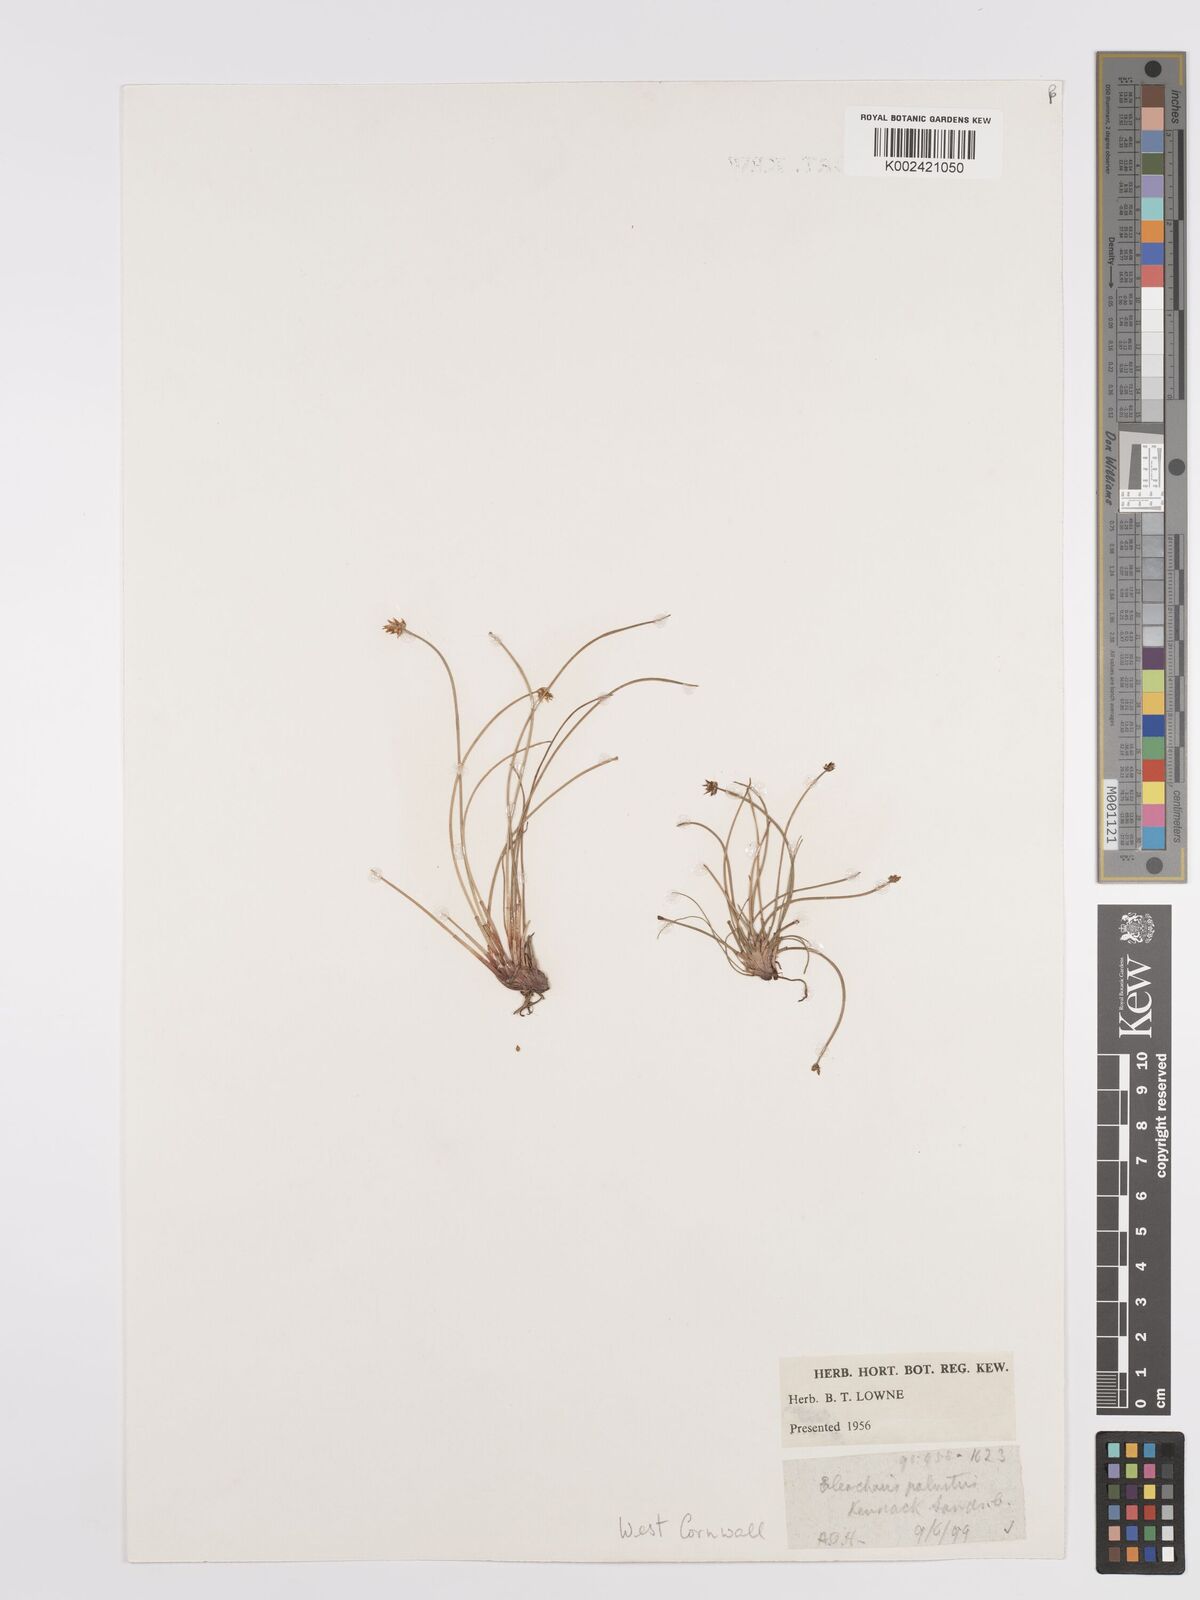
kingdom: Plantae
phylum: Tracheophyta
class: Liliopsida
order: Poales
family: Cyperaceae
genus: Eleocharis
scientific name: Eleocharis palustris
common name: Common spike-rush
